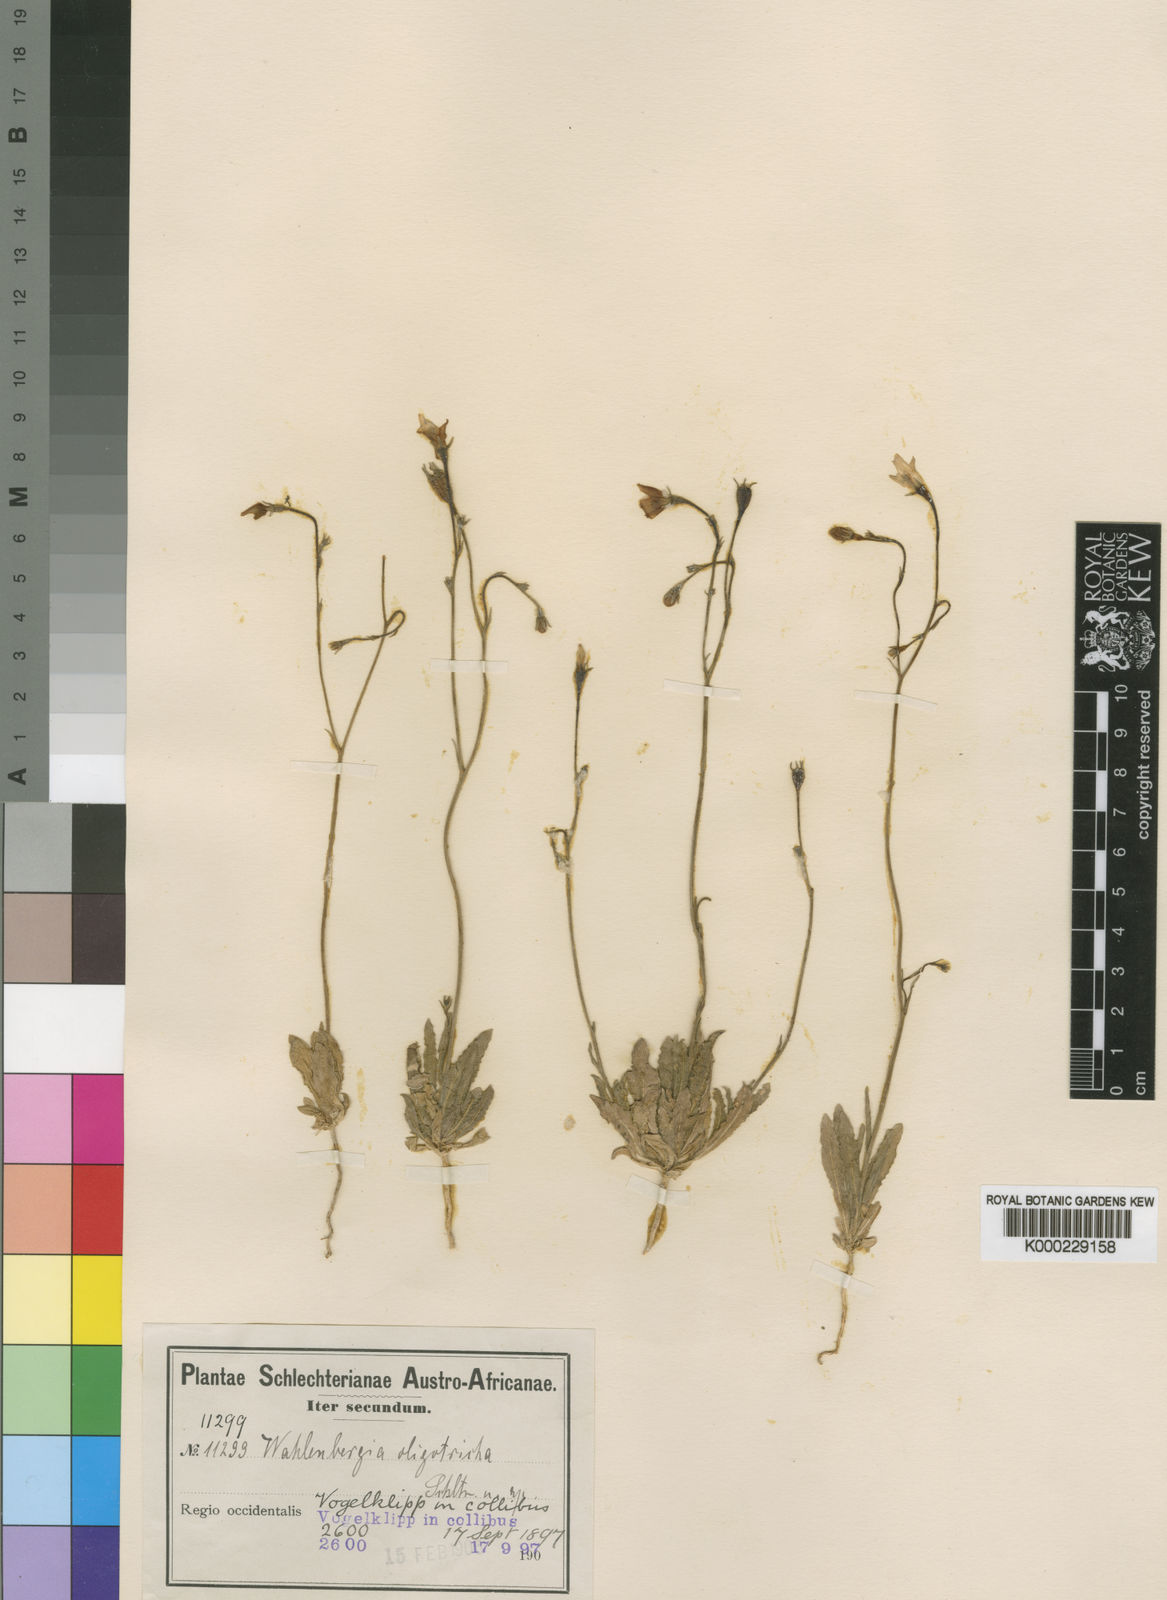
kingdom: Plantae
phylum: Tracheophyta
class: Magnoliopsida
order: Asterales
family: Campanulaceae
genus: Wahlenbergia
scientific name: Wahlenbergia oligotricha
